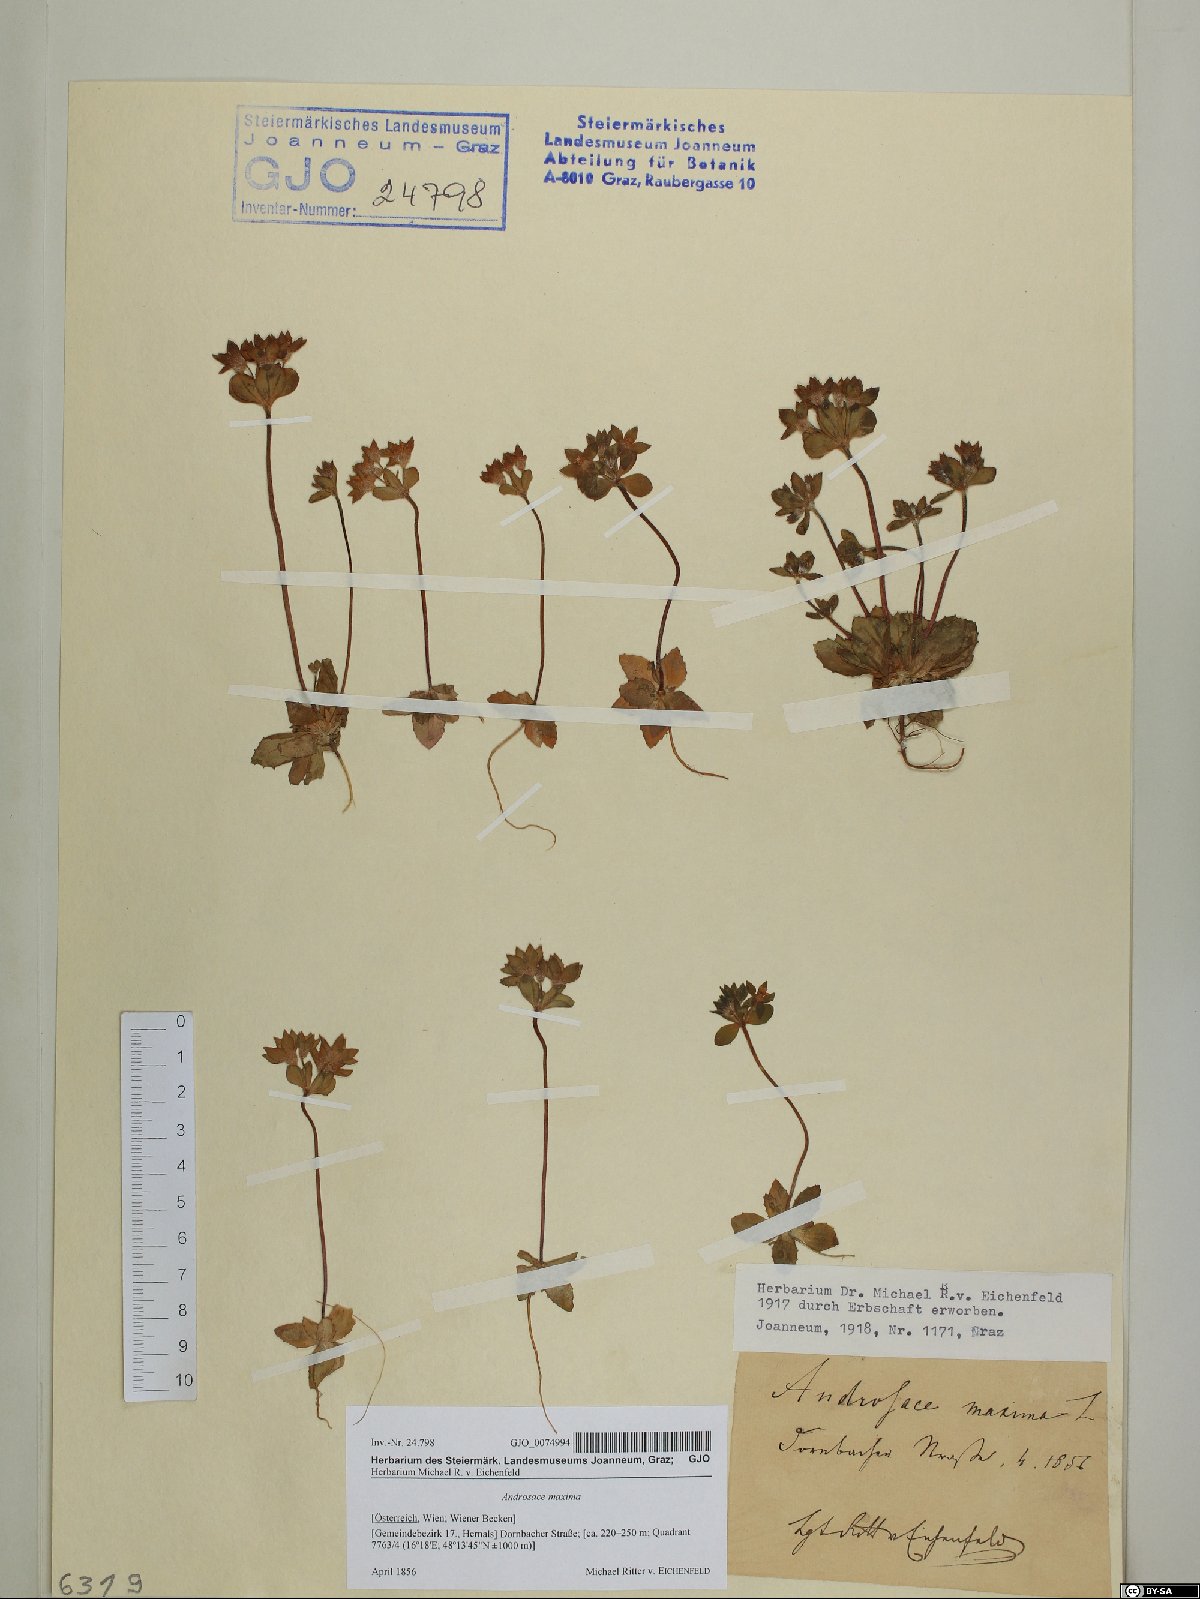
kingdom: Plantae
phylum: Tracheophyta
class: Magnoliopsida
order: Ericales
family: Primulaceae
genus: Androsace
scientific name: Androsace maxima
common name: Annual androsace
